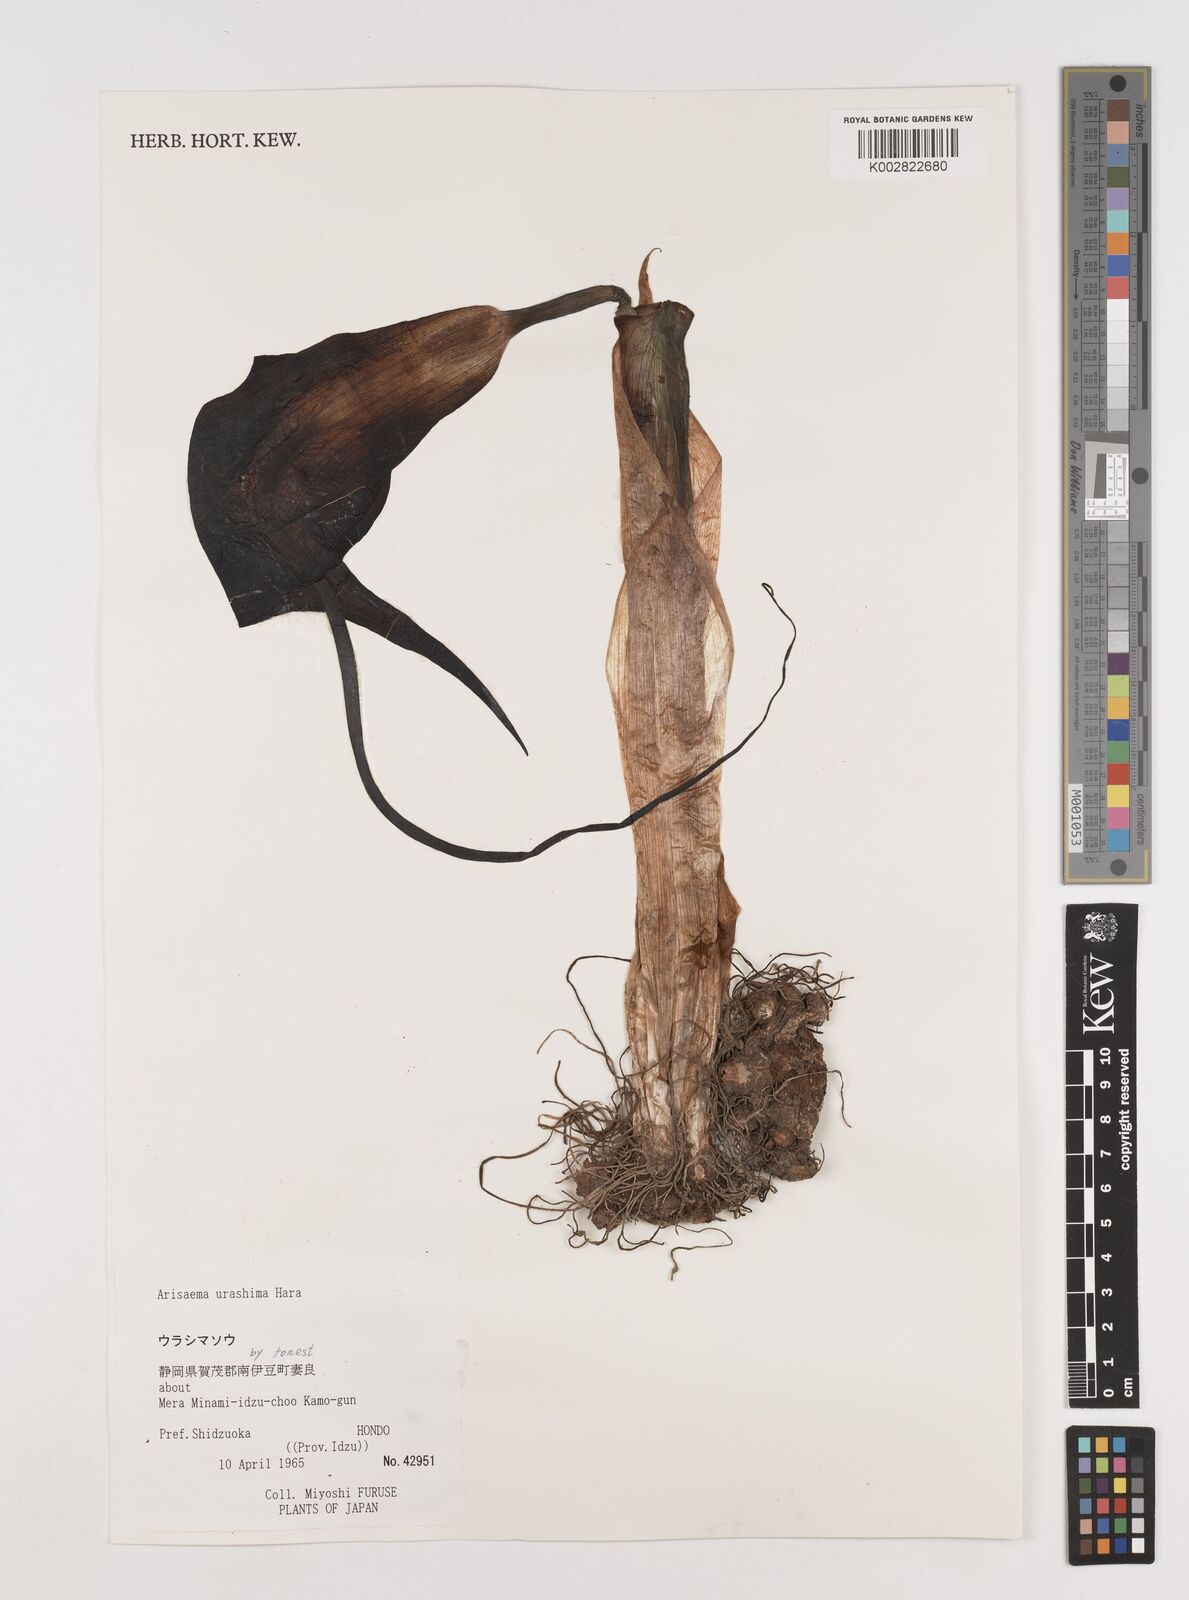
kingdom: Plantae
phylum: Tracheophyta
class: Liliopsida
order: Alismatales
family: Araceae
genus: Arisaema
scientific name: Arisaema
